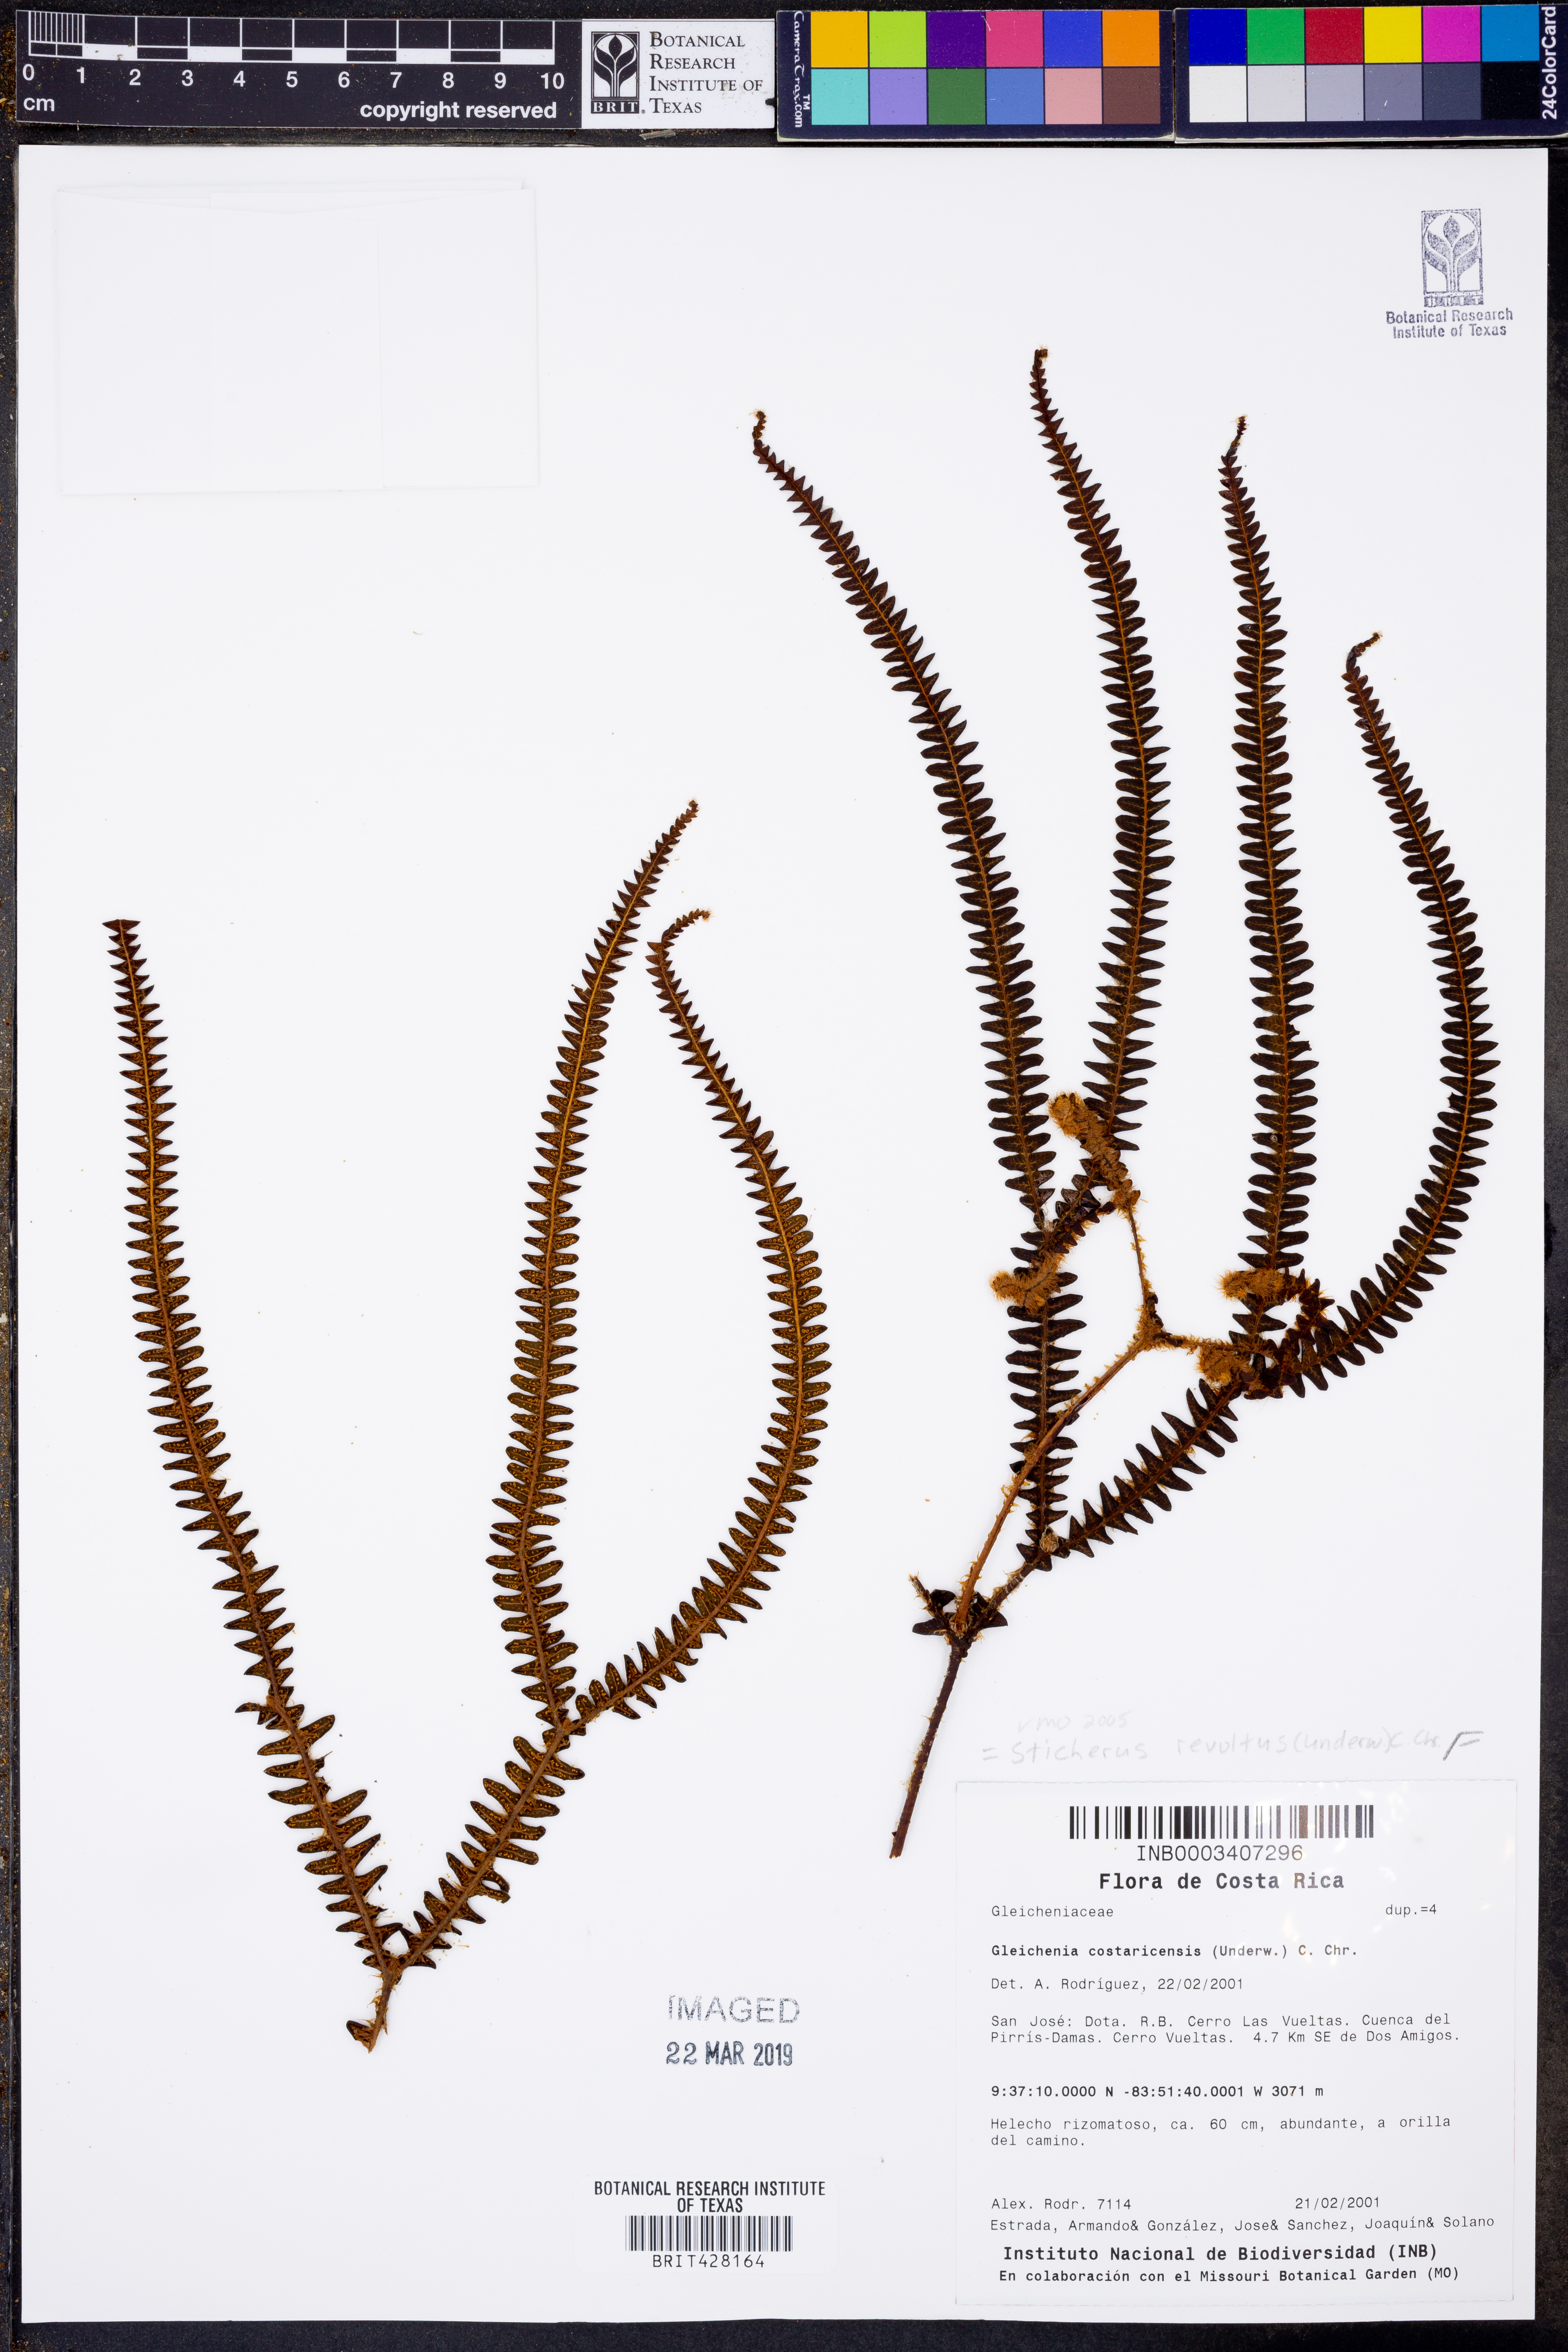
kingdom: Plantae
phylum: Tracheophyta
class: Polypodiopsida
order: Gleicheniales
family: Gleicheniaceae
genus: Sticherus
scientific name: Sticherus revolutus
